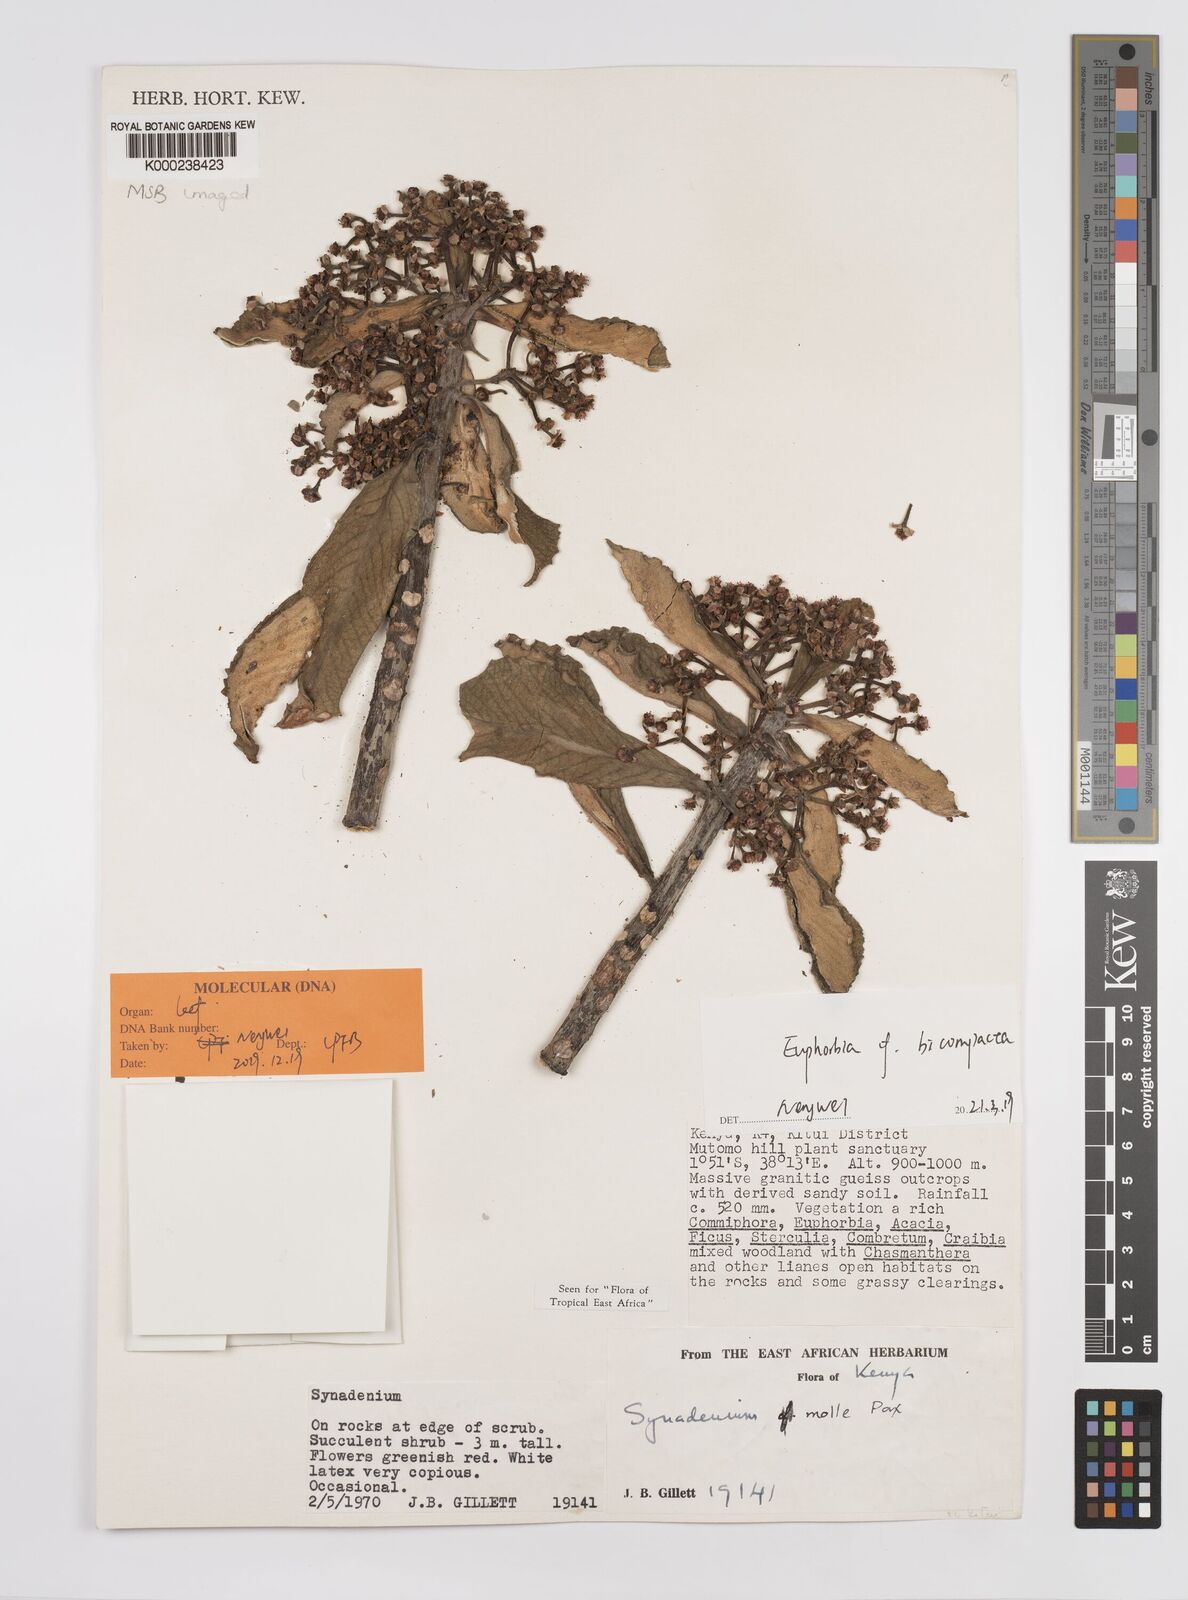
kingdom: Plantae
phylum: Tracheophyta
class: Magnoliopsida
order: Malpighiales
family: Euphorbiaceae
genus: Euphorbia
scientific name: Euphorbia pseudomollis
